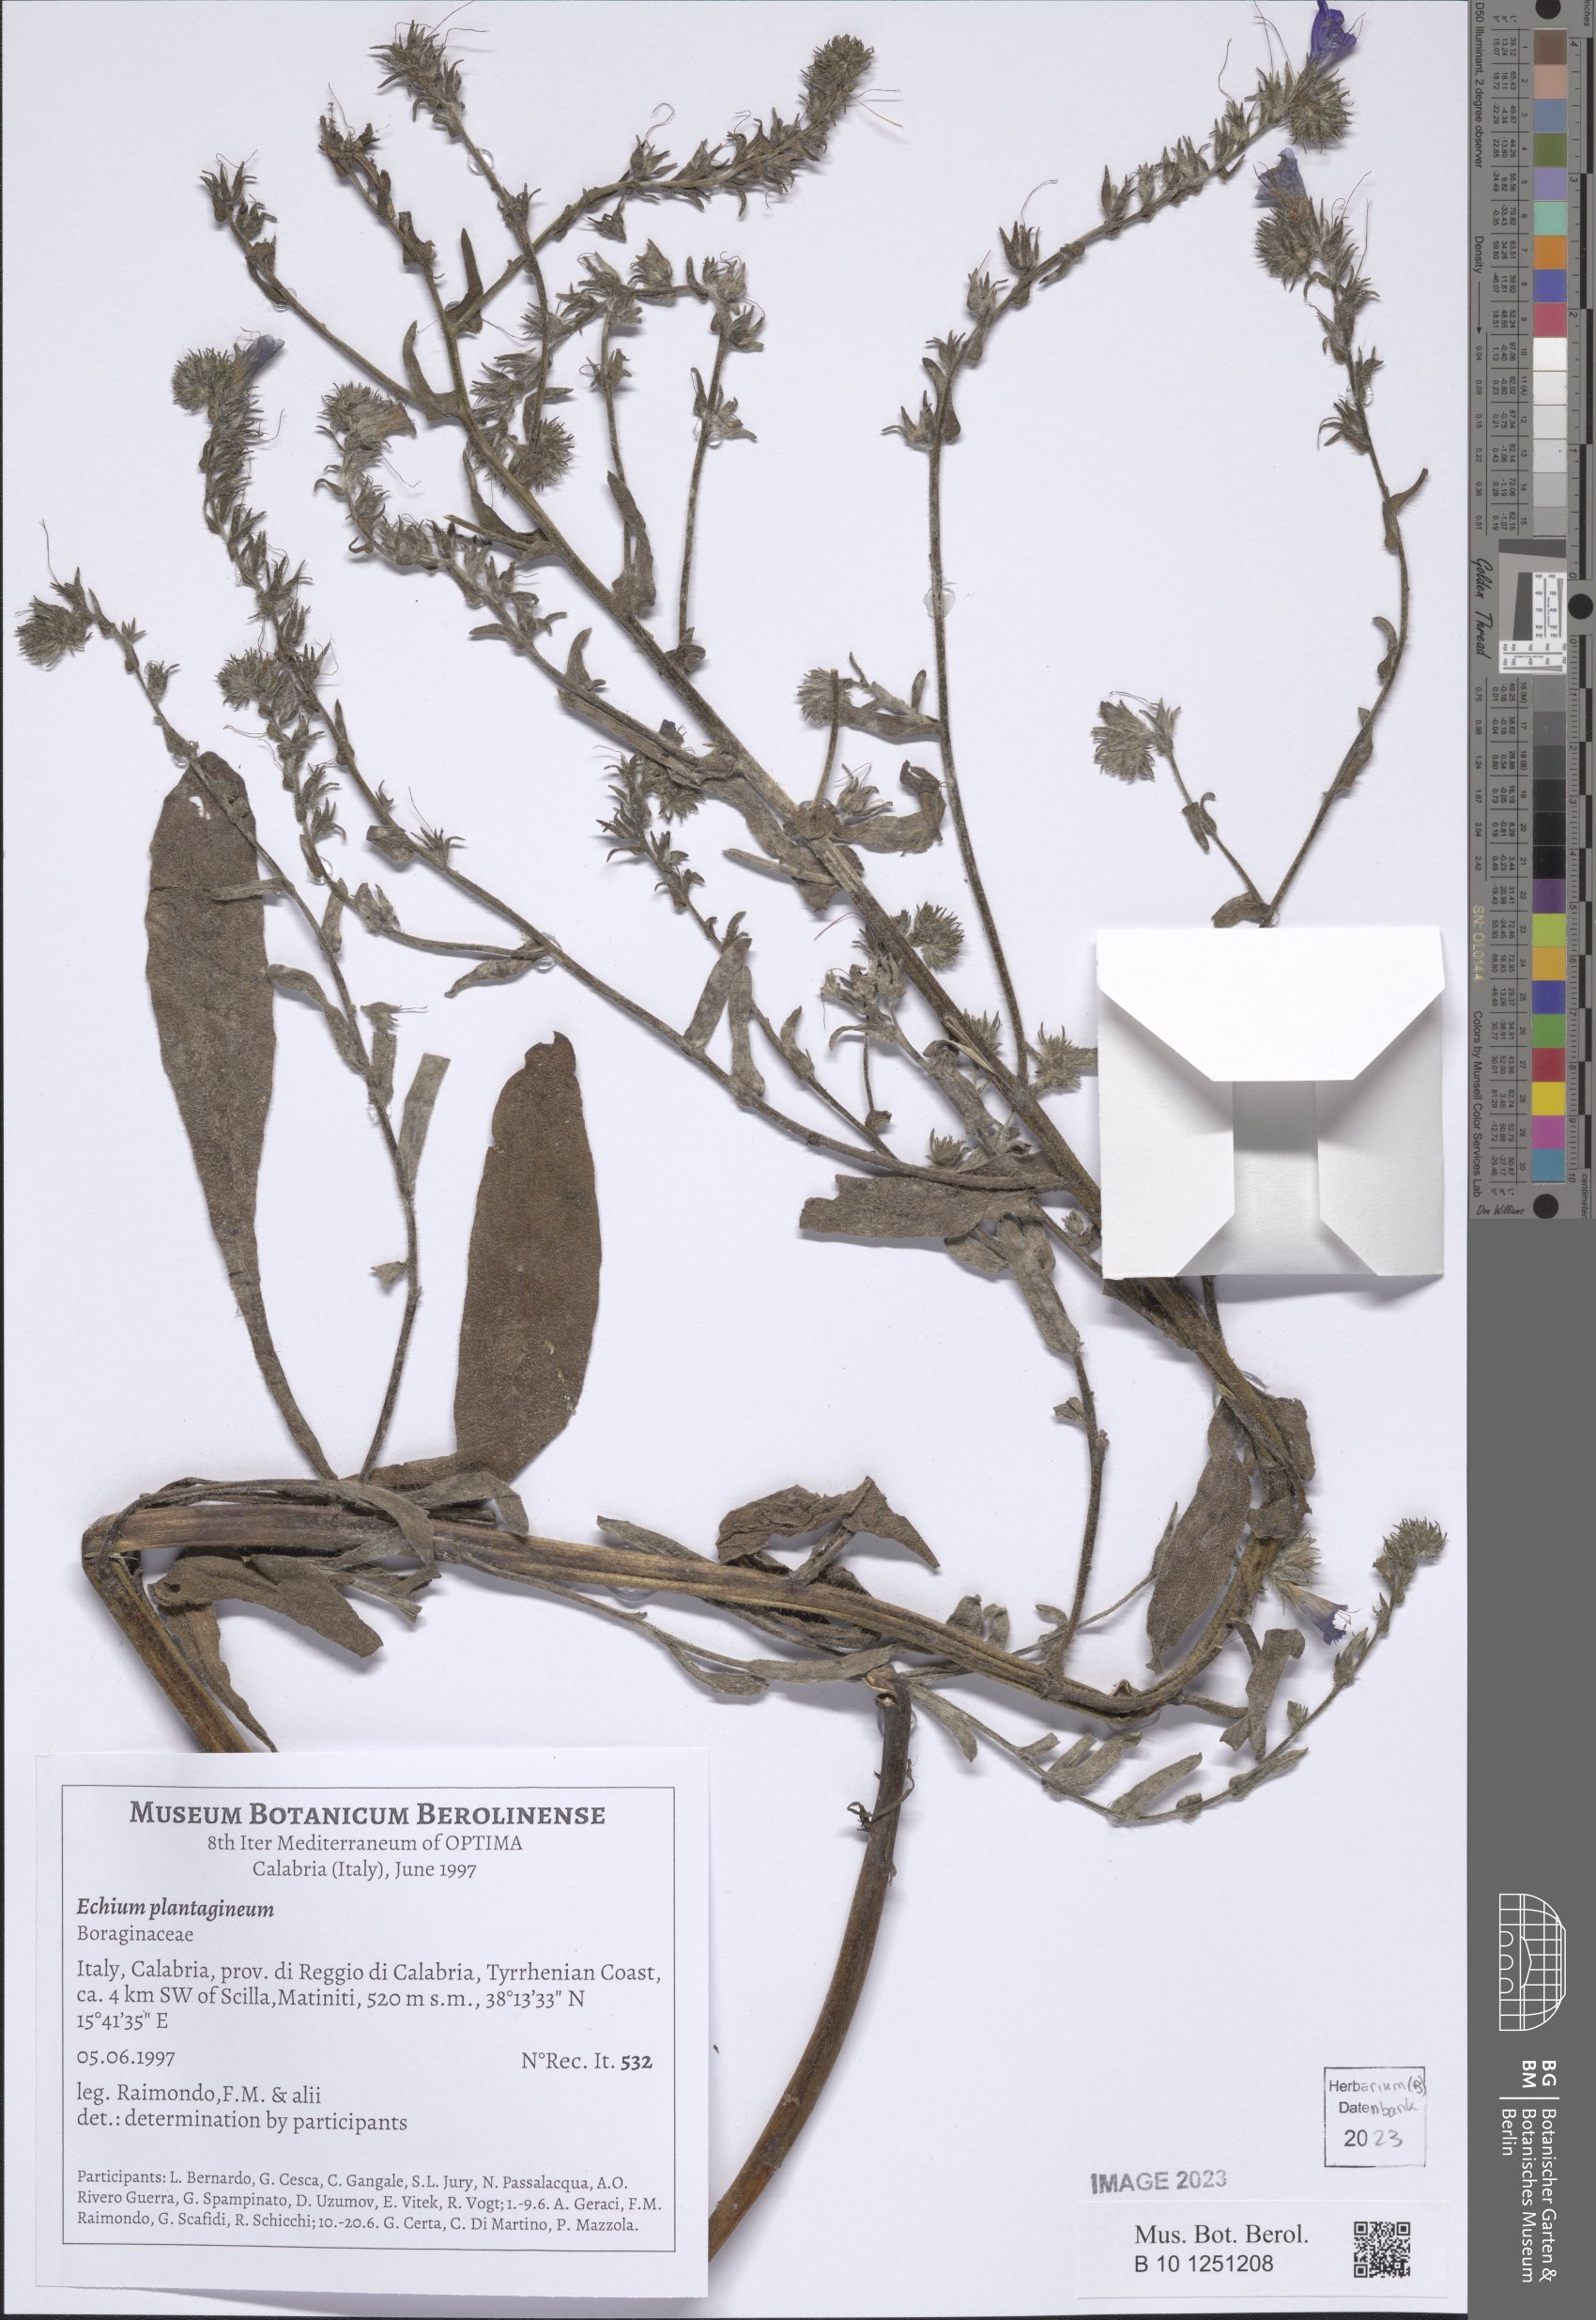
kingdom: Plantae
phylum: Tracheophyta
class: Magnoliopsida
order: Boraginales
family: Boraginaceae
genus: Echium
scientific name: Echium plantagineum
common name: Purple viper's-bugloss
